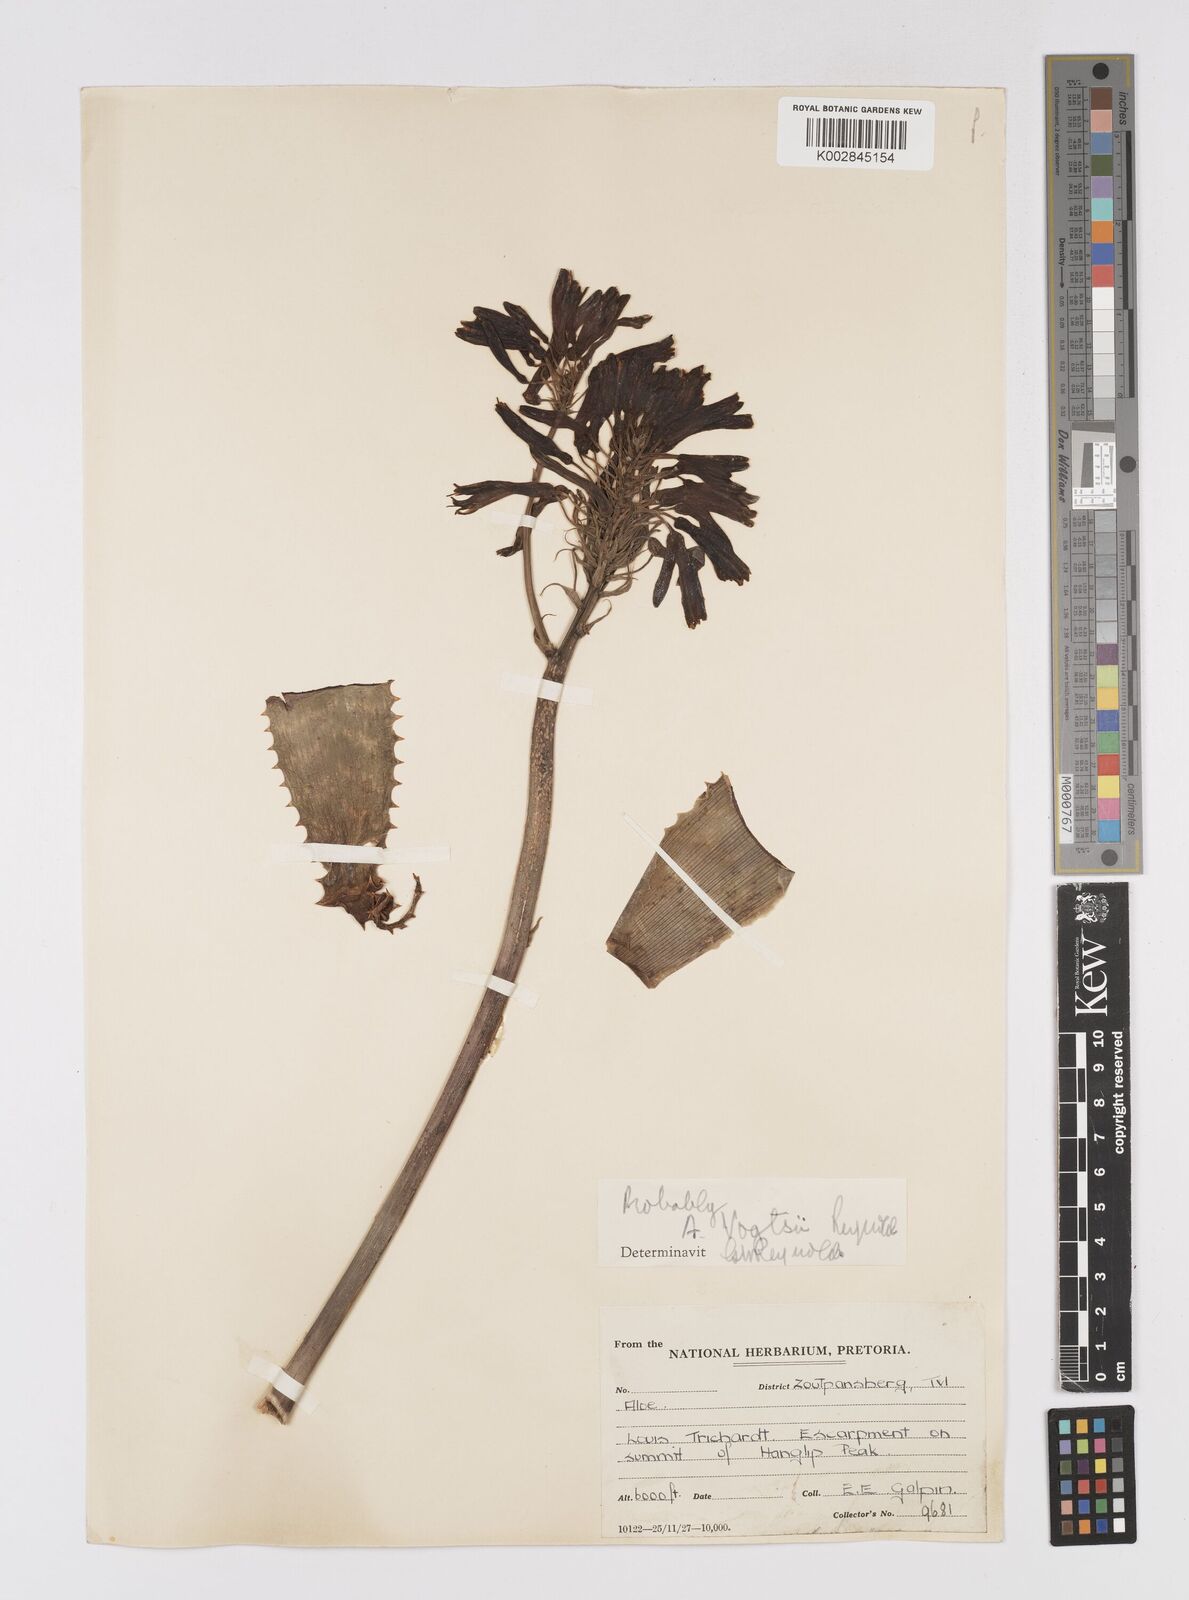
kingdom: Plantae
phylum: Tracheophyta
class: Liliopsida
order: Asparagales
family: Asphodelaceae
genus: Aloe
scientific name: Aloe vogtsii
